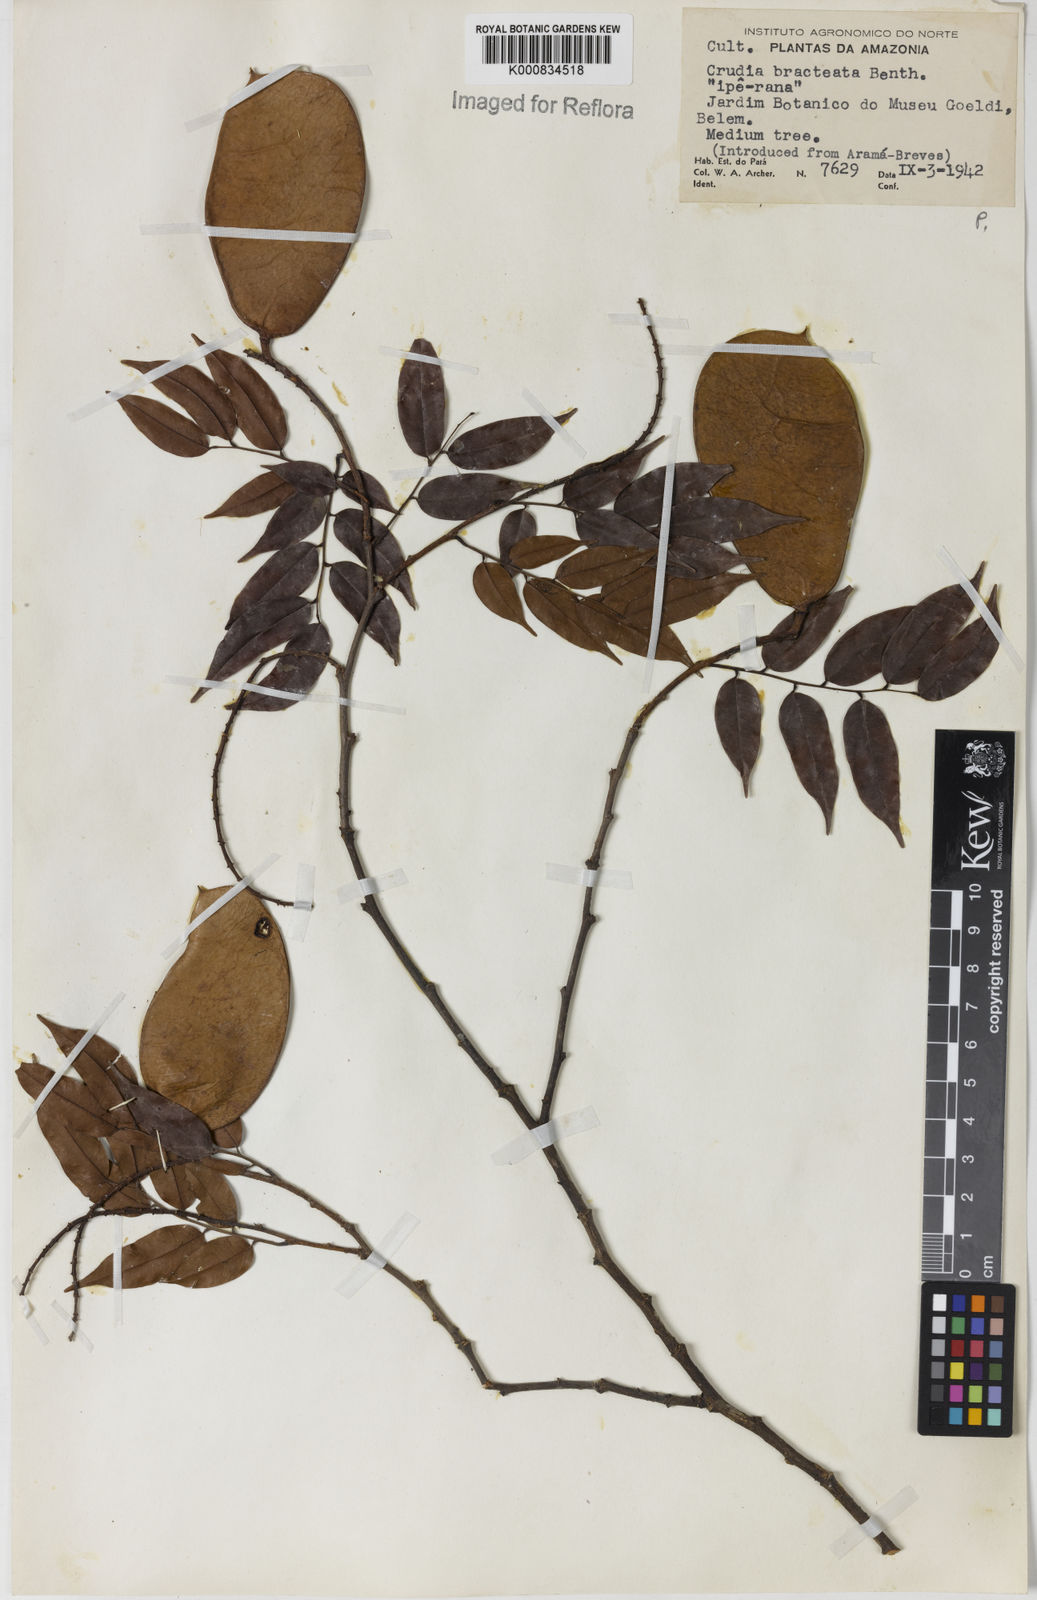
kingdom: Plantae
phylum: Tracheophyta
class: Magnoliopsida
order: Fabales
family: Fabaceae
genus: Crudia
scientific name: Crudia bracteata
